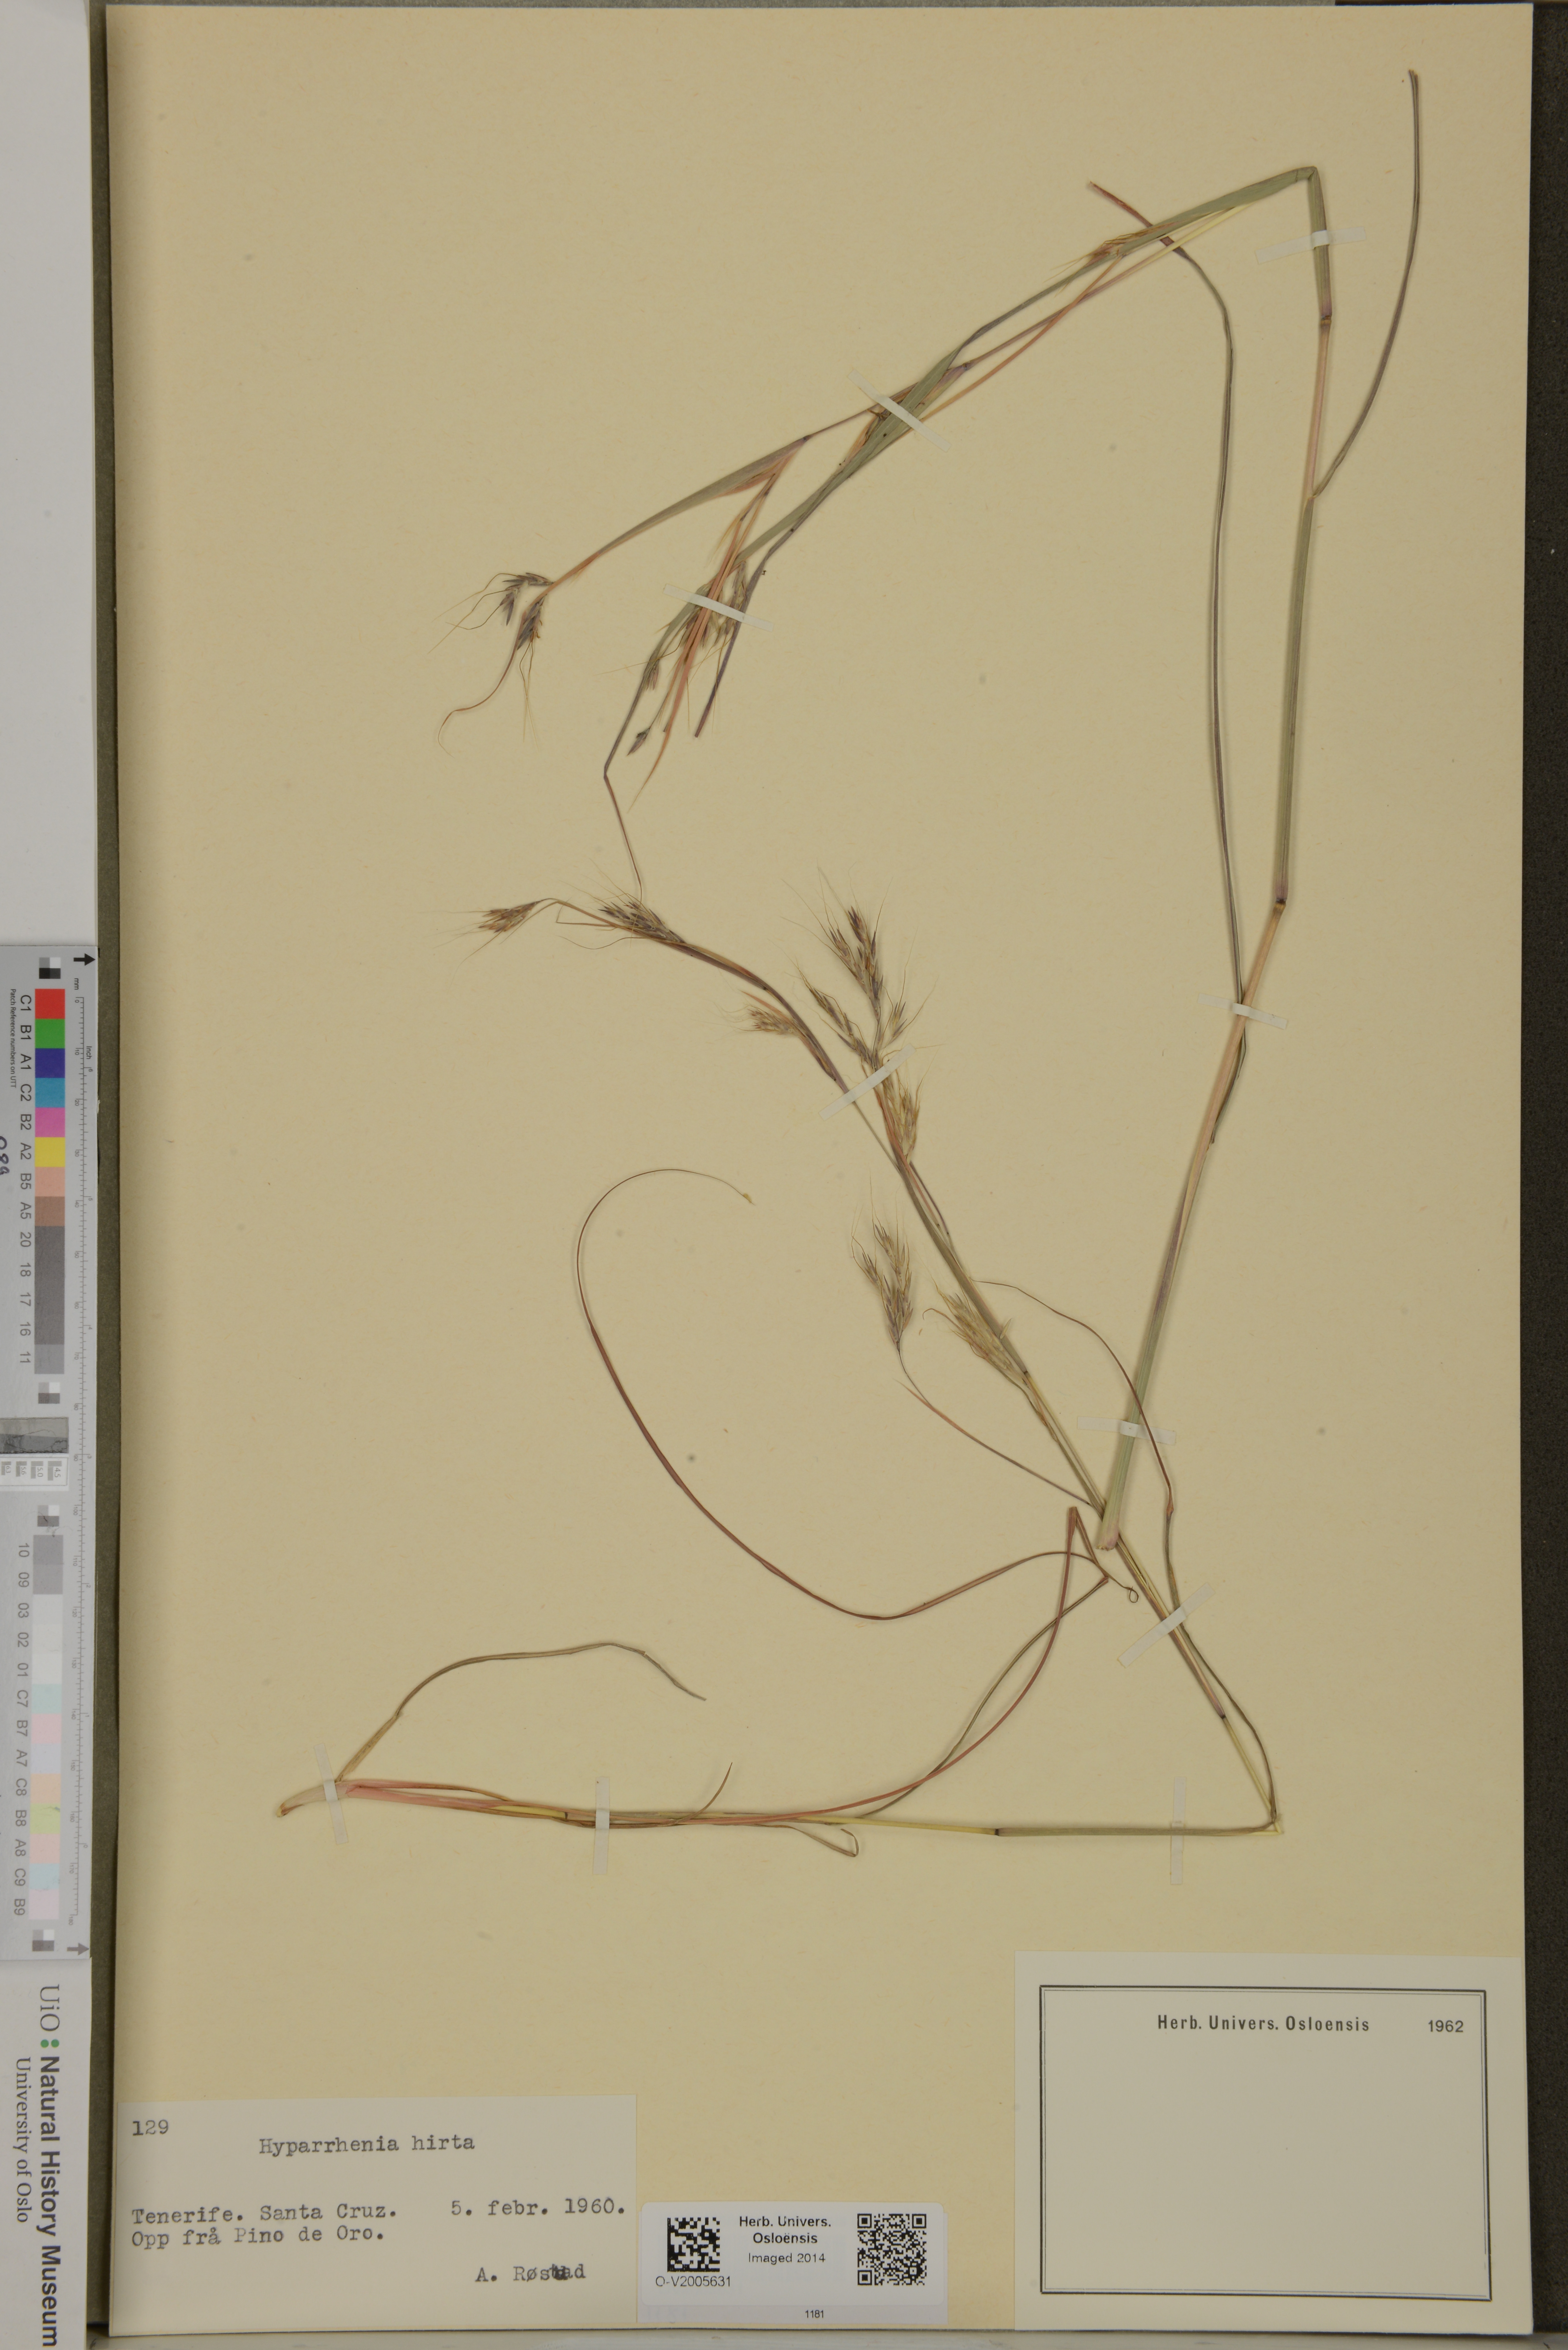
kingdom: Plantae
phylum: Tracheophyta
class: Liliopsida
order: Poales
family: Poaceae
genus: Hyparrhenia
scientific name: Hyparrhenia hirta
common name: Thatching grass
